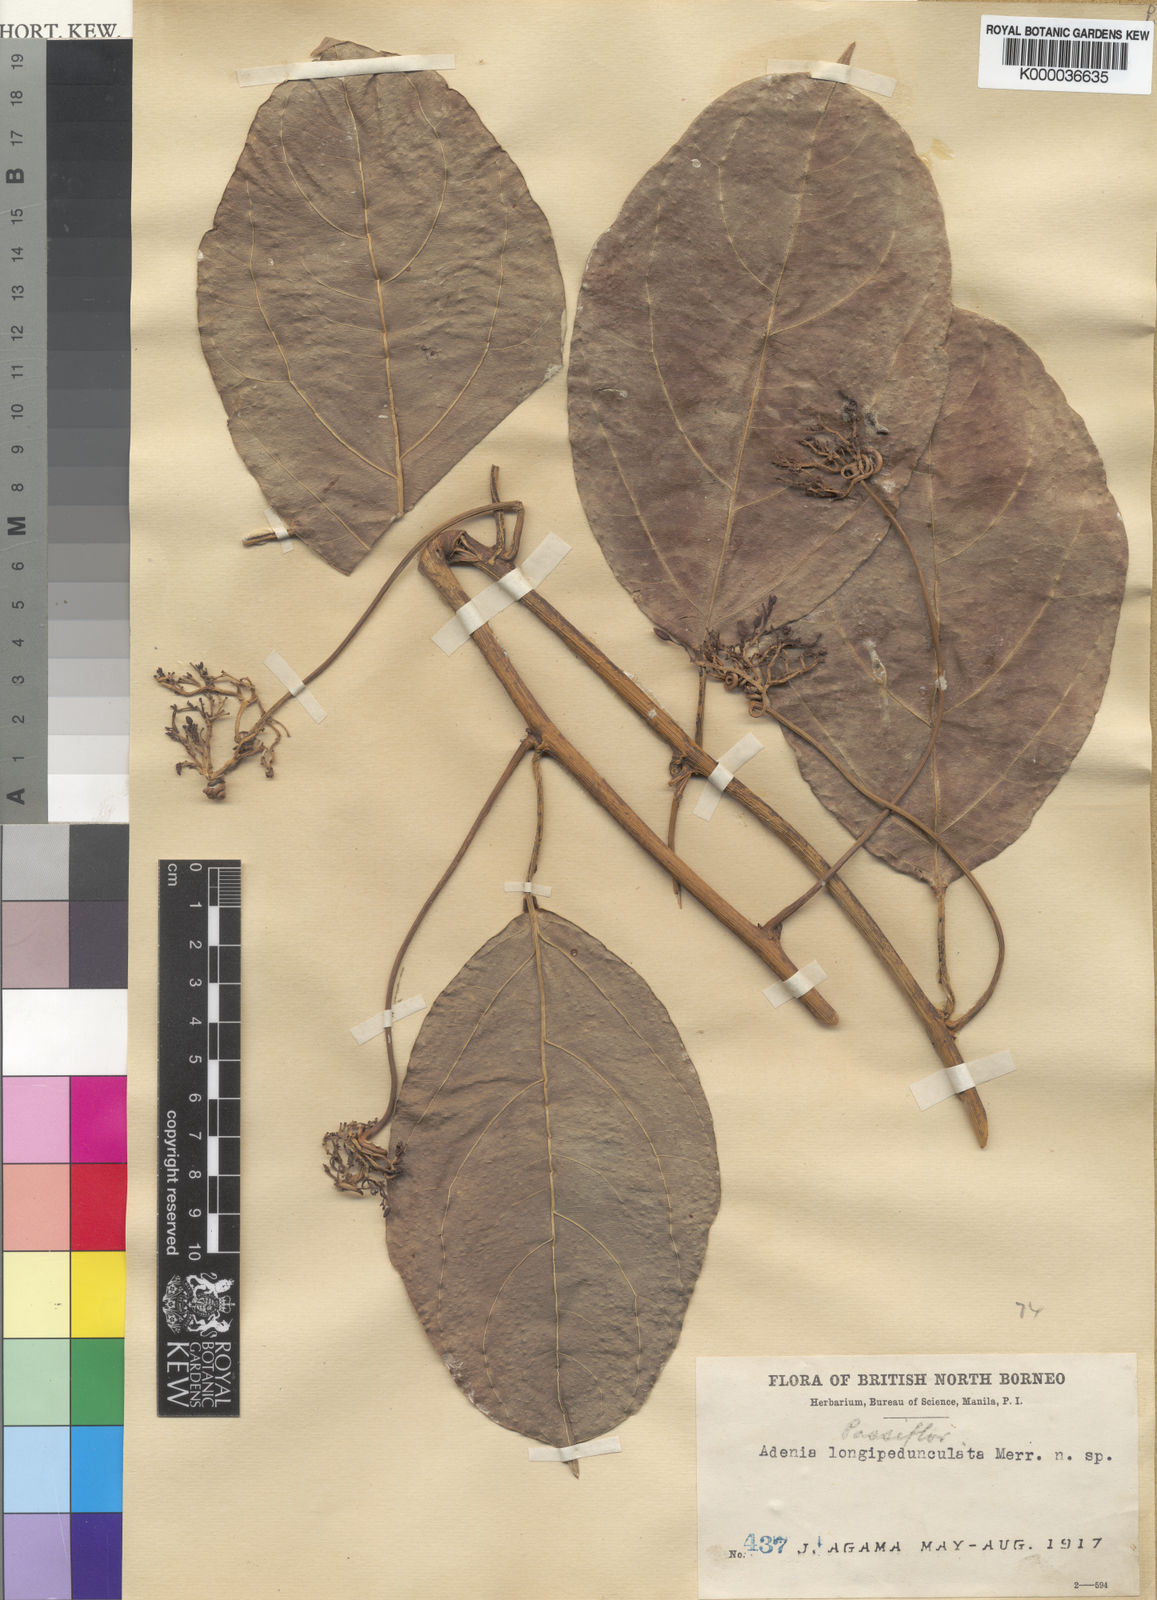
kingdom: Plantae
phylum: Tracheophyta
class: Magnoliopsida
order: Malpighiales
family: Passifloraceae
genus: Adenia
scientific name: Adenia macrophylla
